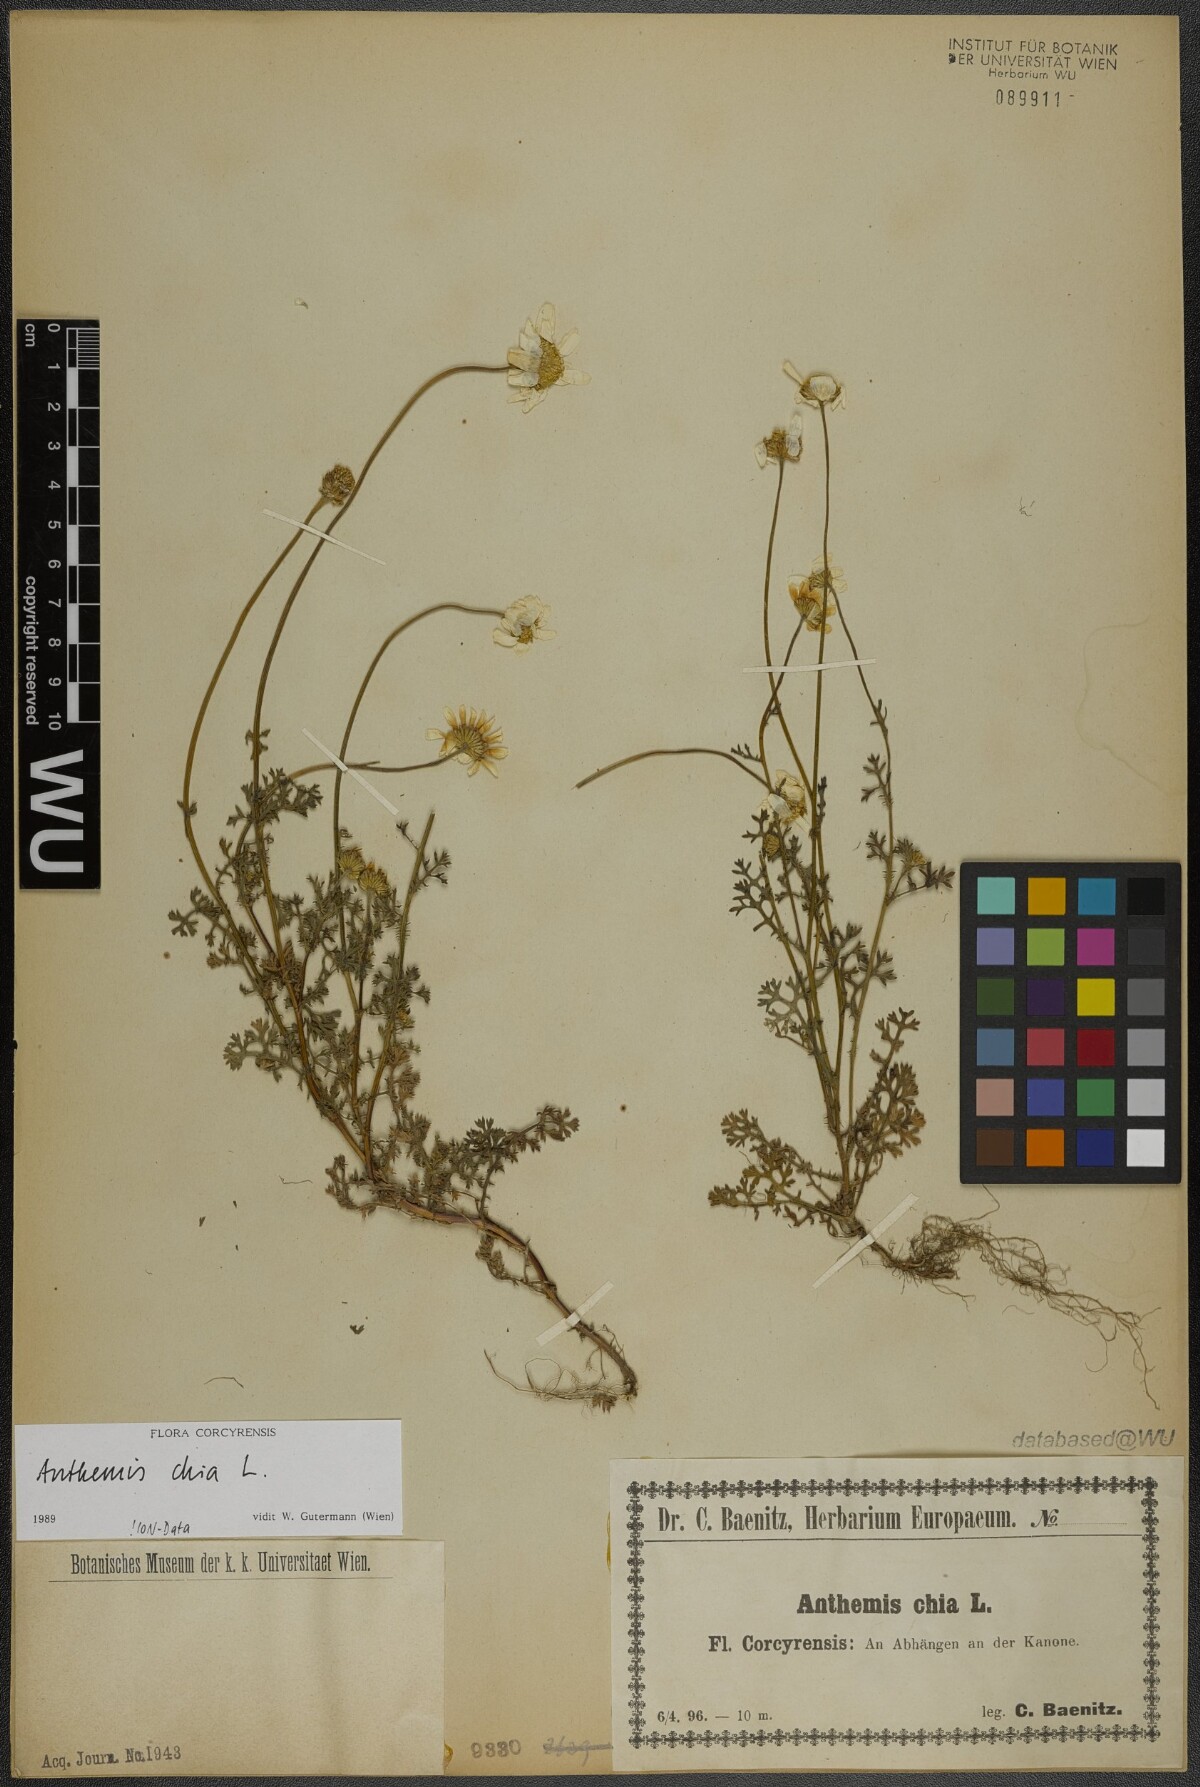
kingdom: Plantae
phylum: Tracheophyta
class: Magnoliopsida
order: Asterales
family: Asteraceae
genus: Anthemis
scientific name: Anthemis chia
